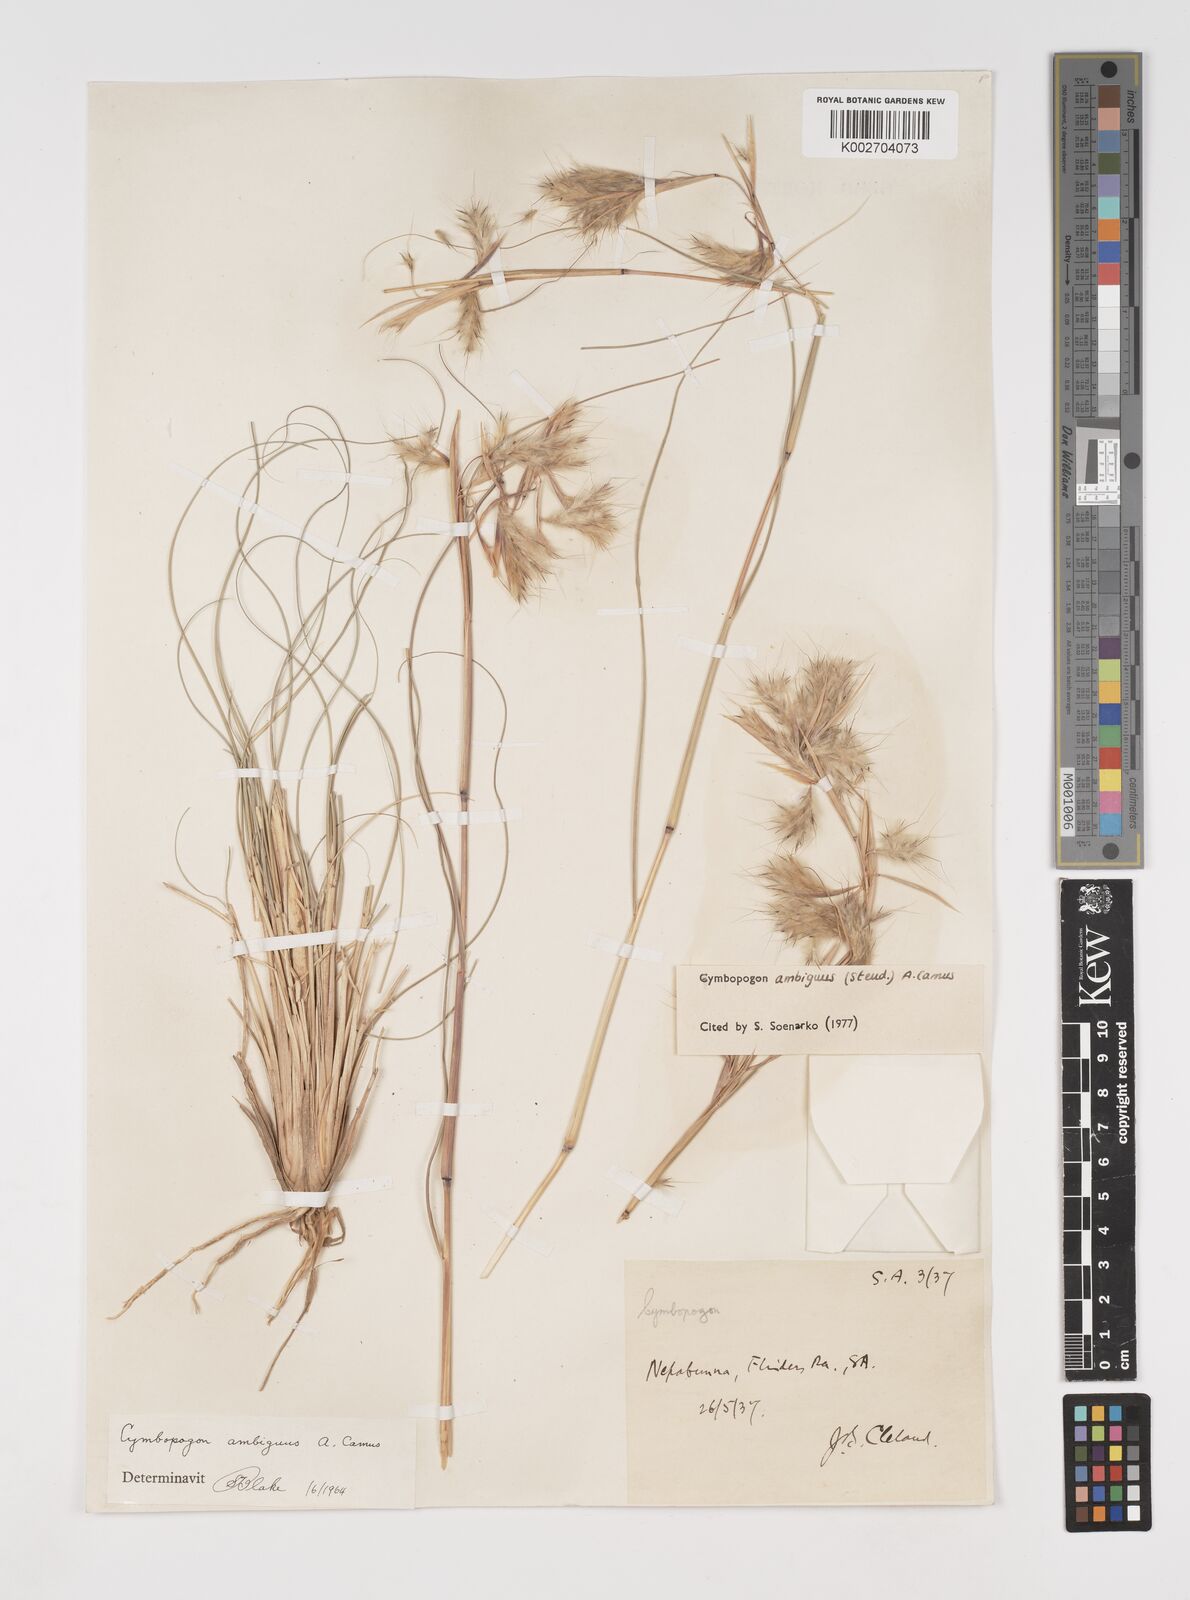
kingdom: Plantae
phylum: Tracheophyta
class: Liliopsida
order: Poales
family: Poaceae
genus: Cymbopogon
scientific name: Cymbopogon ambiguus
